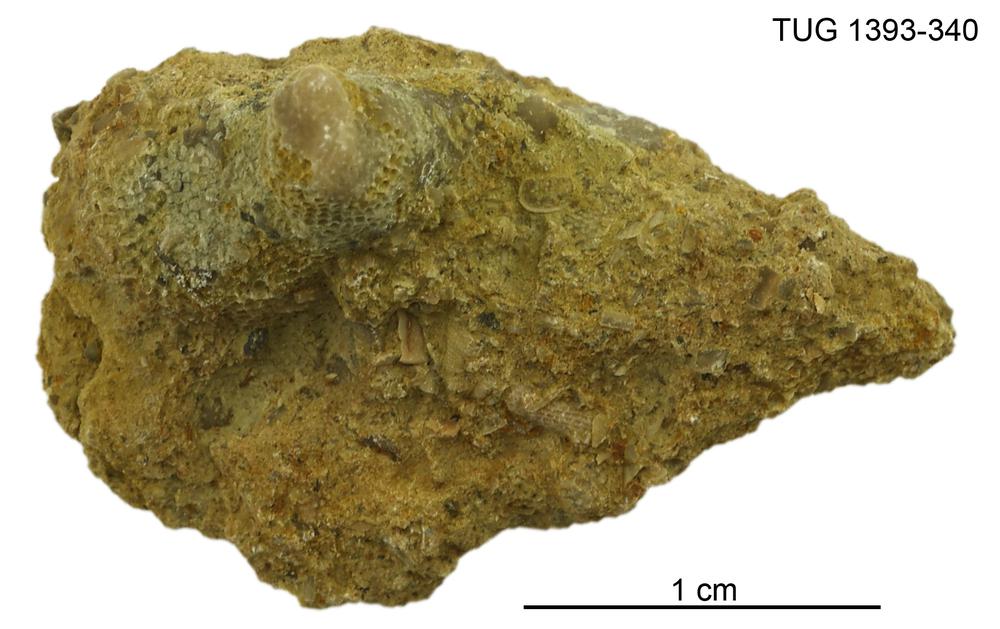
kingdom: Animalia
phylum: Bryozoa
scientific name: Bryozoa
